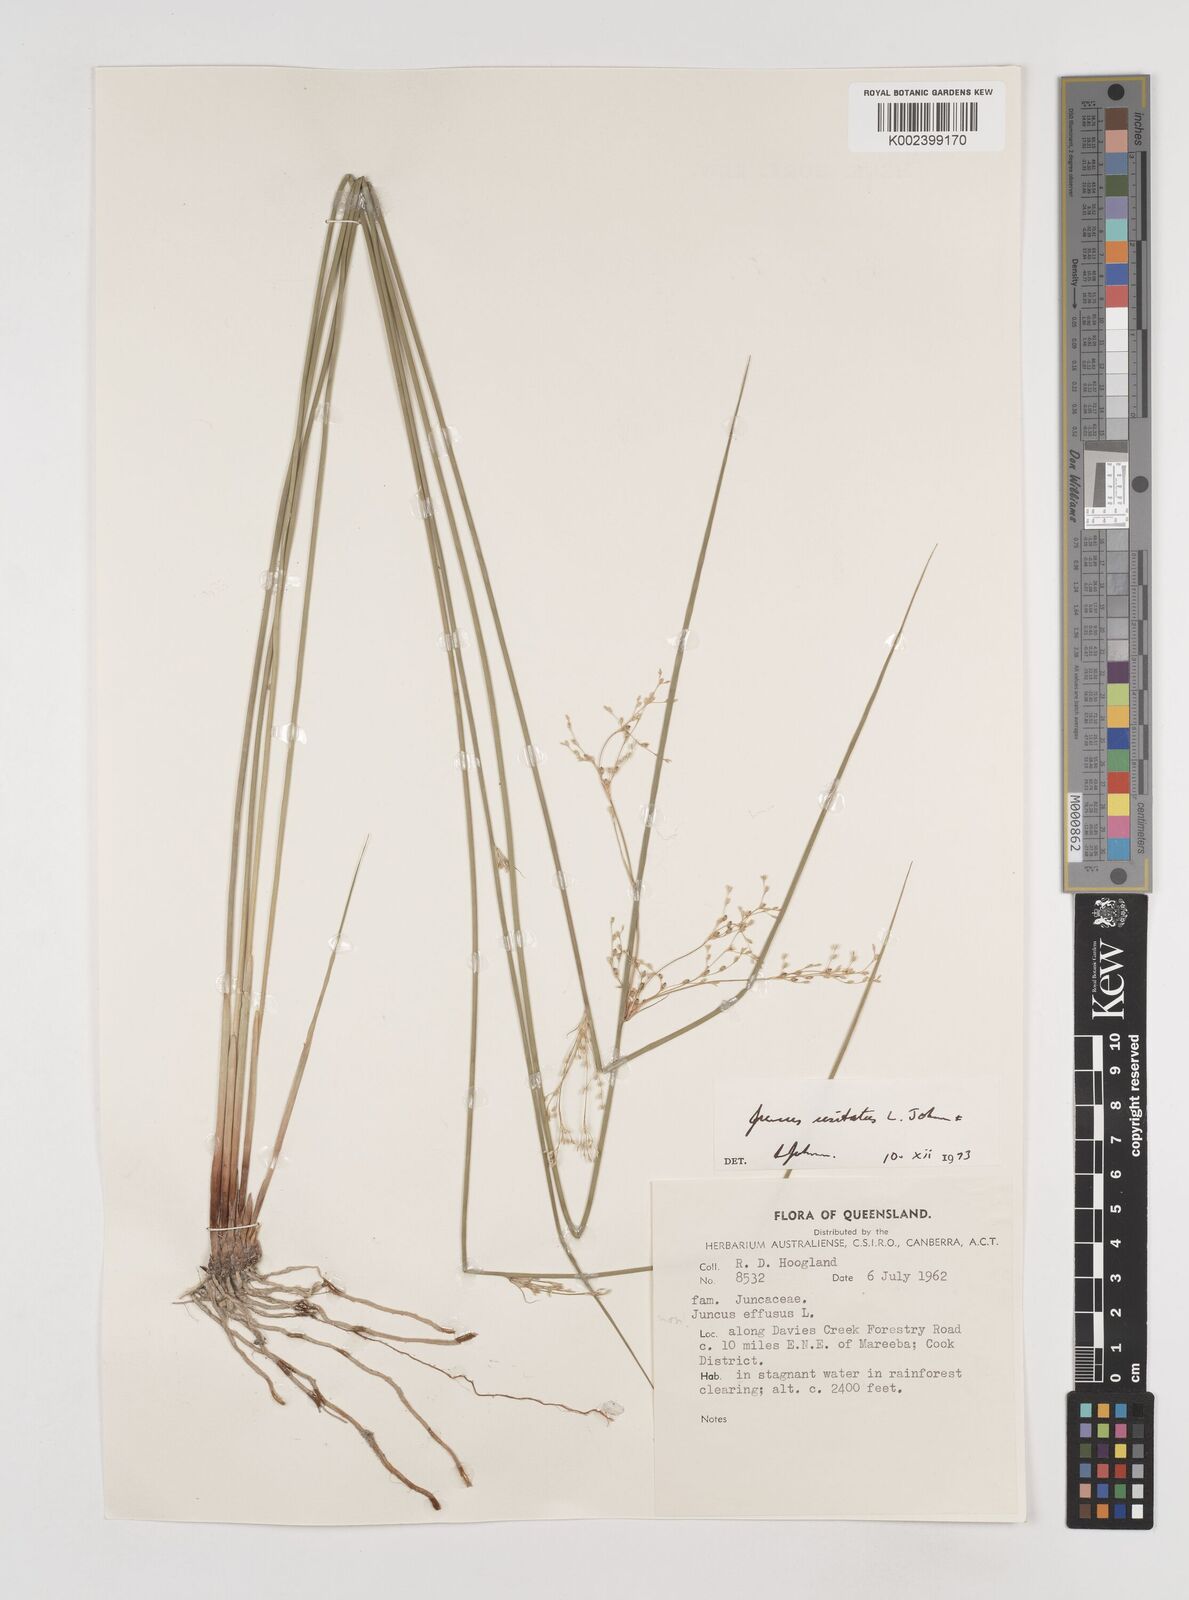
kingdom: Plantae
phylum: Tracheophyta
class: Liliopsida
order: Poales
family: Juncaceae
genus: Juncus
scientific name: Juncus usitatus
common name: Rush
